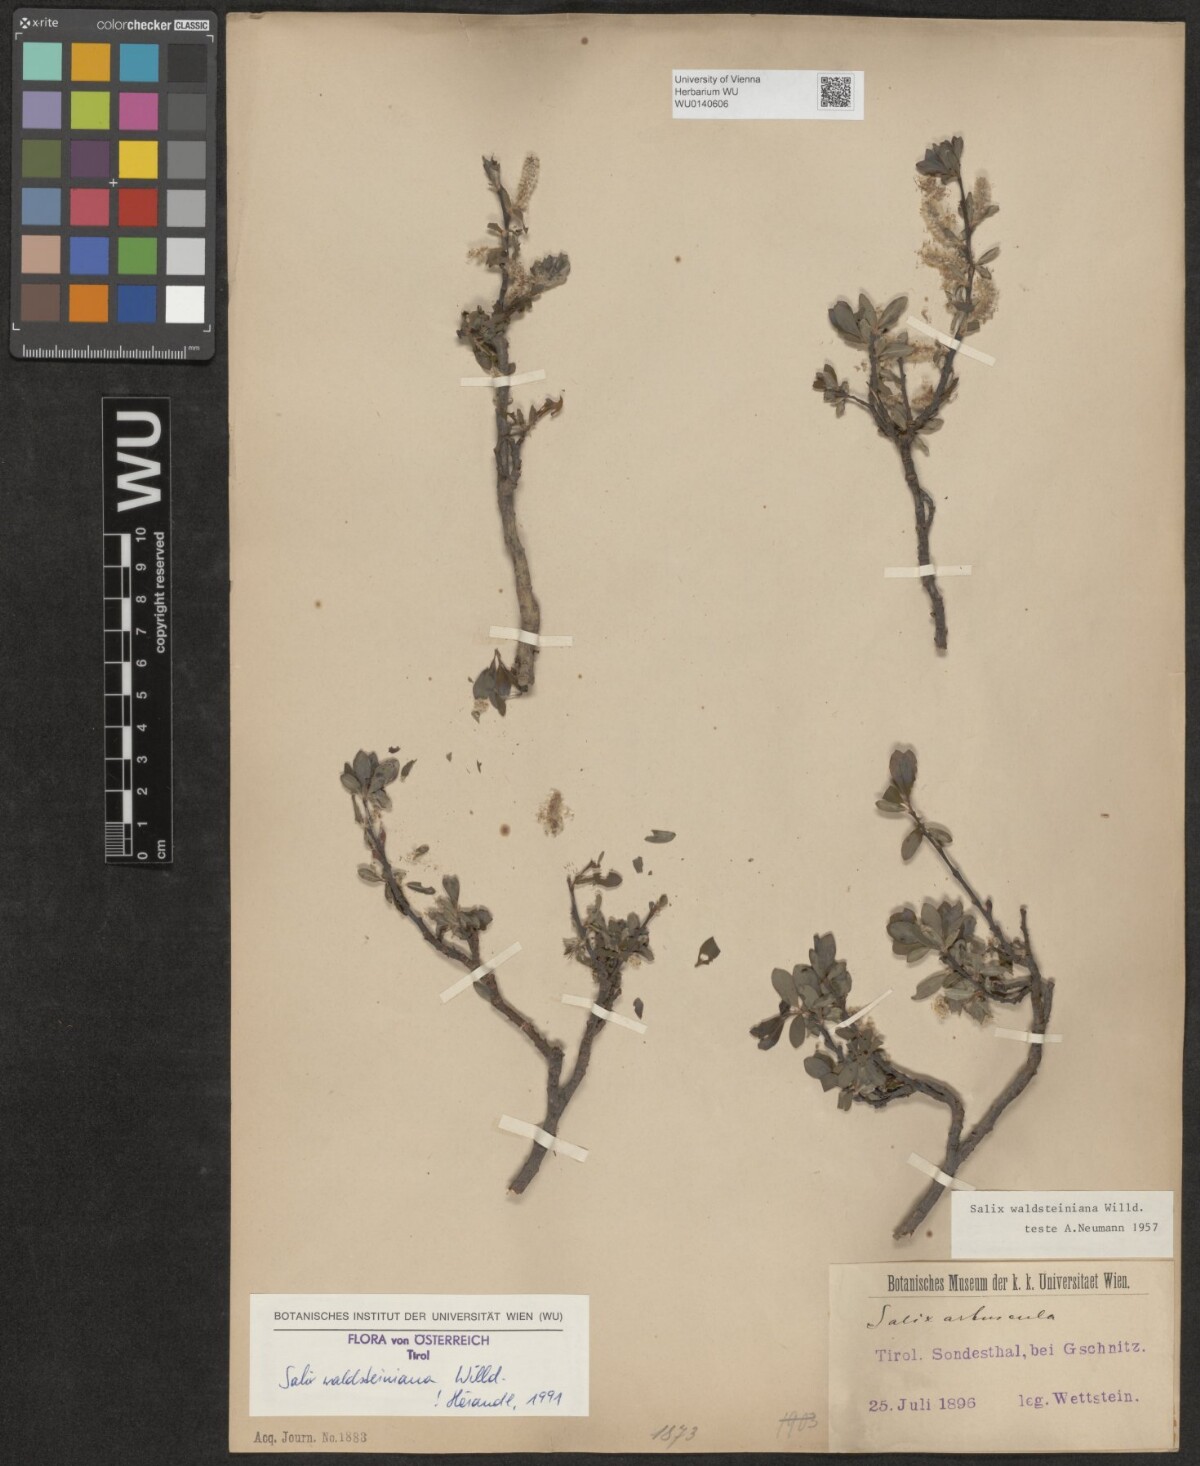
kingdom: Plantae
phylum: Tracheophyta
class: Magnoliopsida
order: Malpighiales
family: Salicaceae
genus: Salix
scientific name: Salix waldsteiniana
